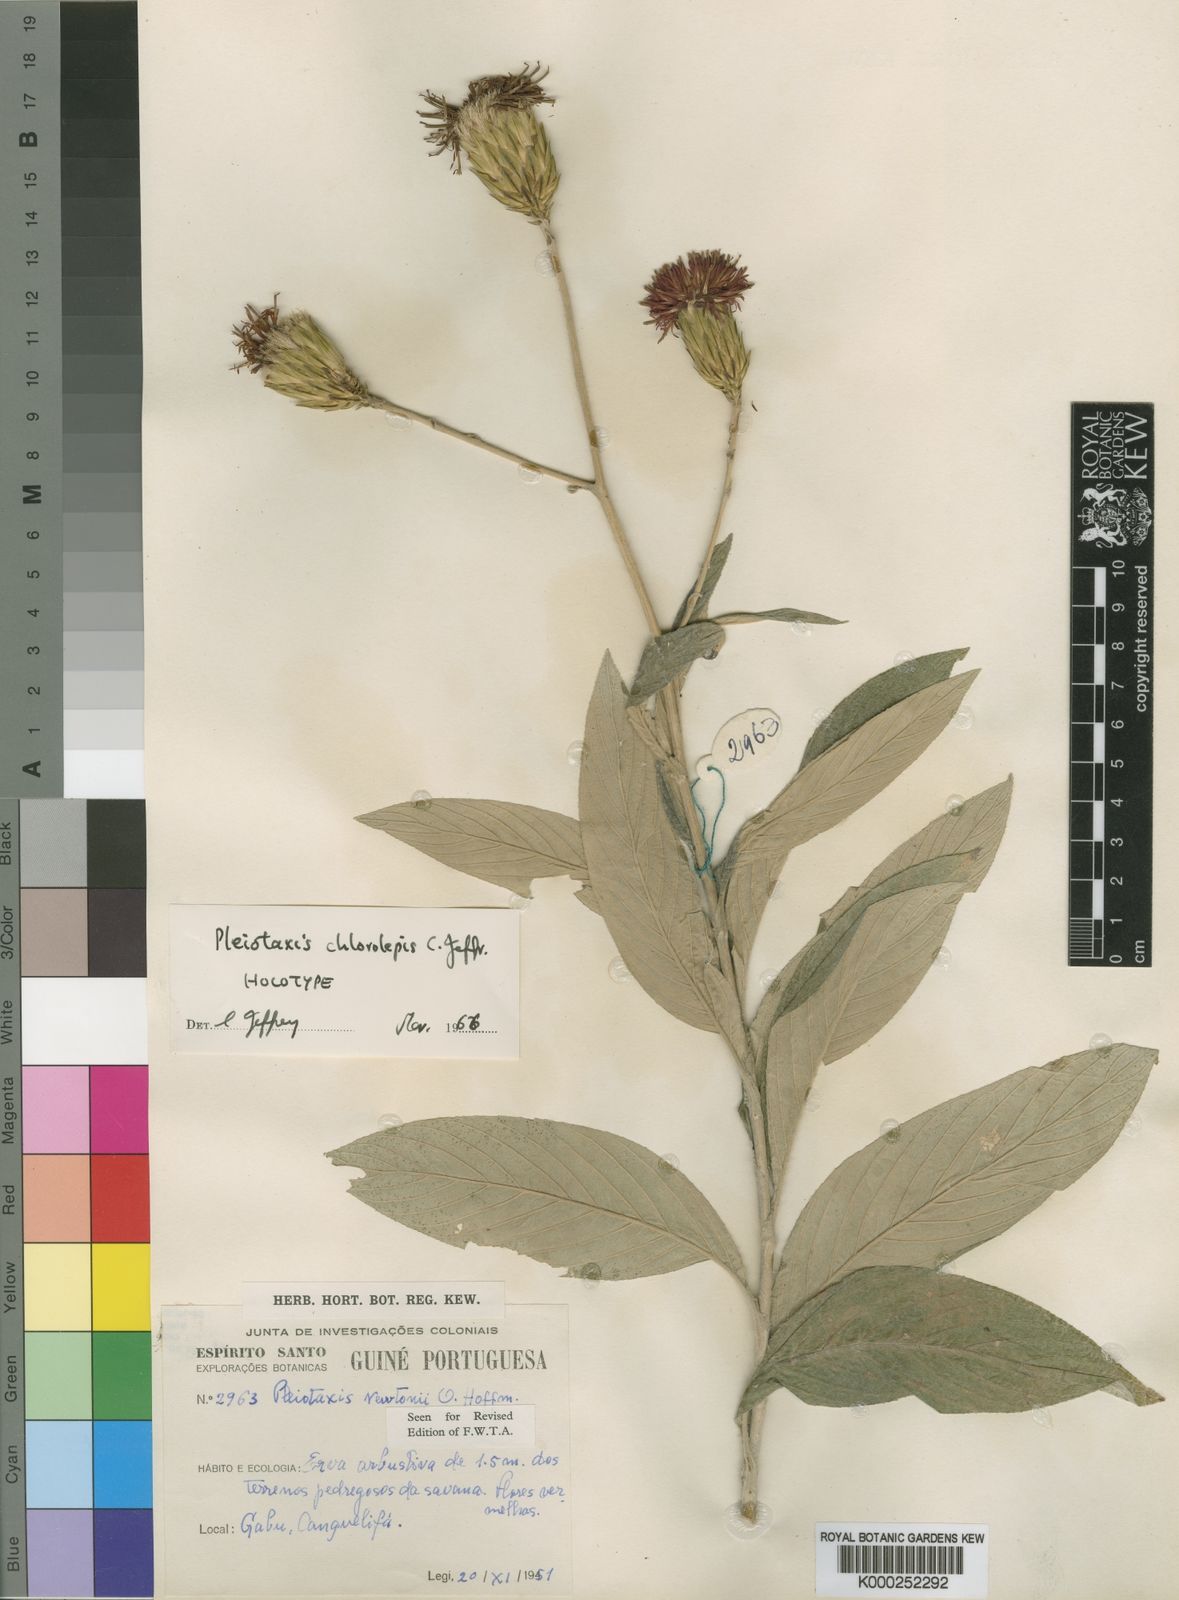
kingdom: Plantae
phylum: Tracheophyta
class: Magnoliopsida
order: Asterales
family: Asteraceae
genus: Pleiotaxis
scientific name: Pleiotaxis chlorolepis
